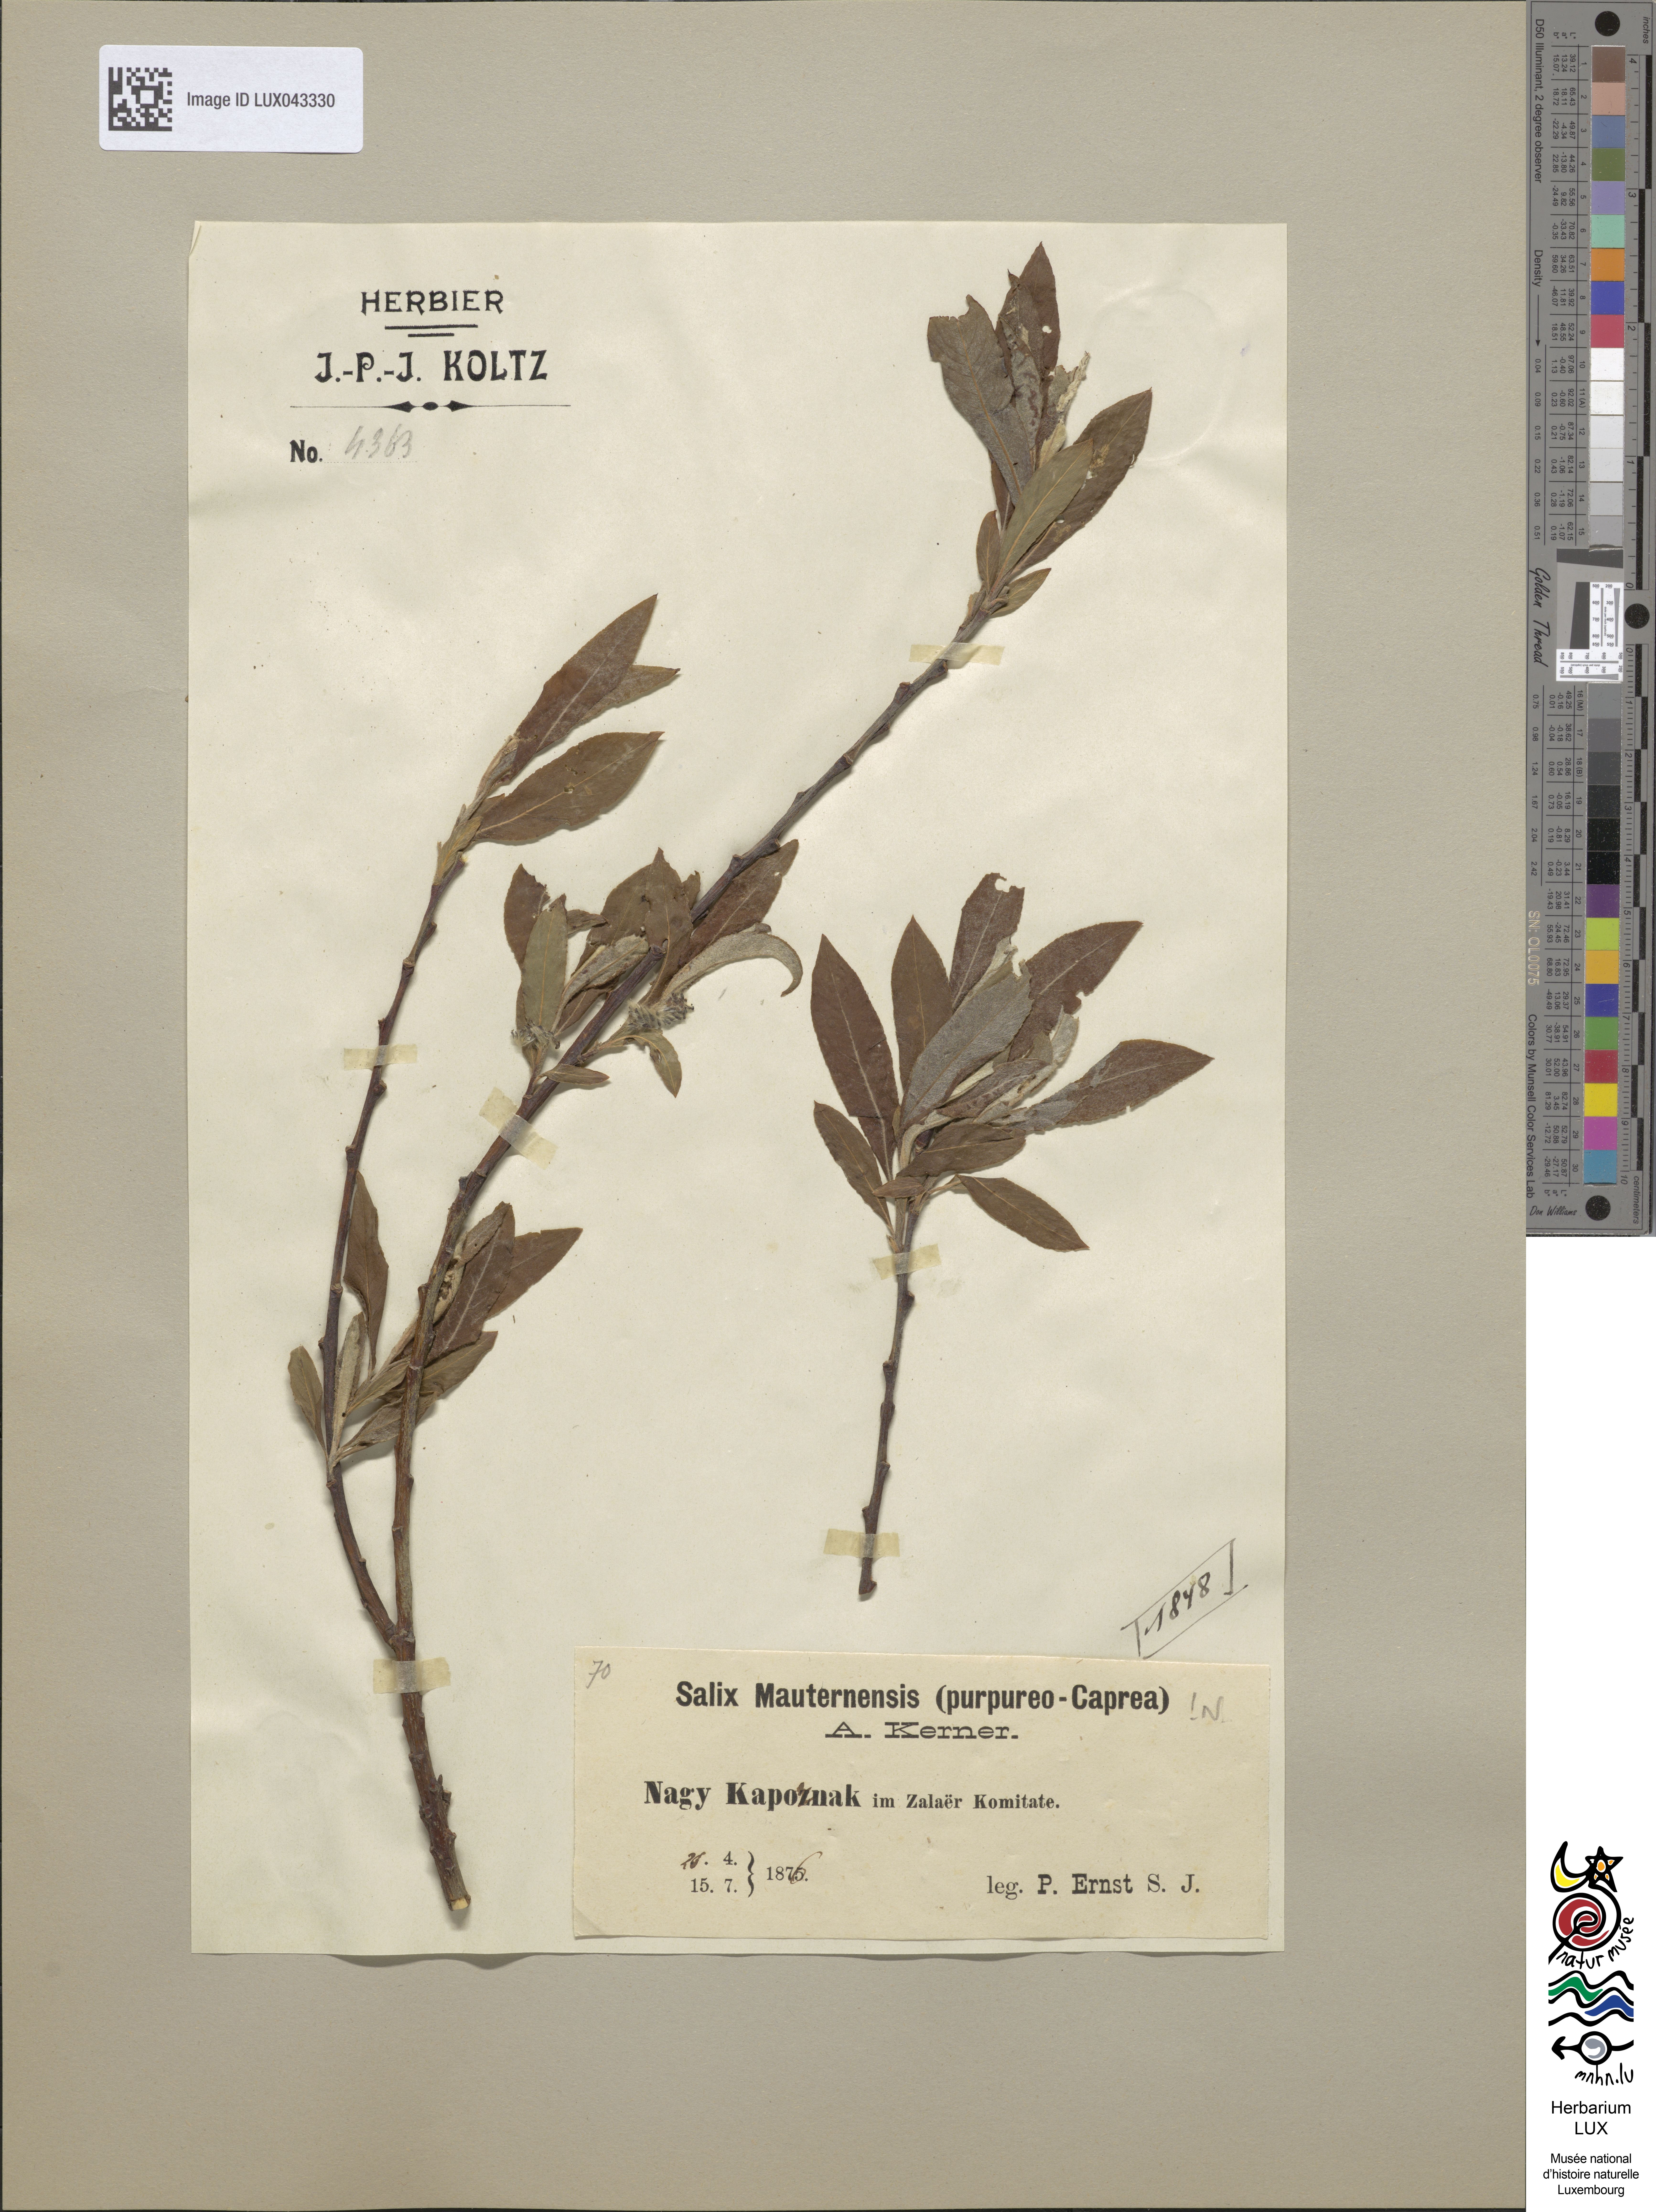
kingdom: Plantae
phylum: Tracheophyta
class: Magnoliopsida
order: Malpighiales
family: Salicaceae
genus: Salix
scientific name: Salix
